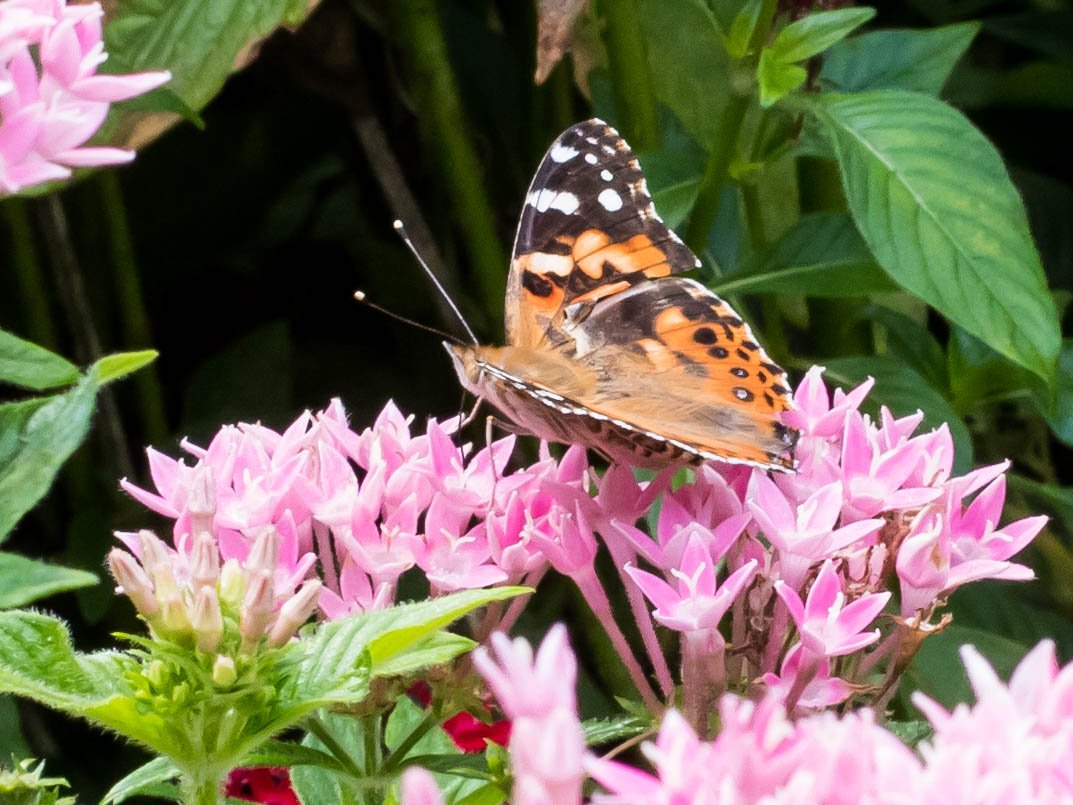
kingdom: Animalia
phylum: Arthropoda
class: Insecta
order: Lepidoptera
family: Nymphalidae
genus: Vanessa
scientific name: Vanessa cardui
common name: Painted Lady
